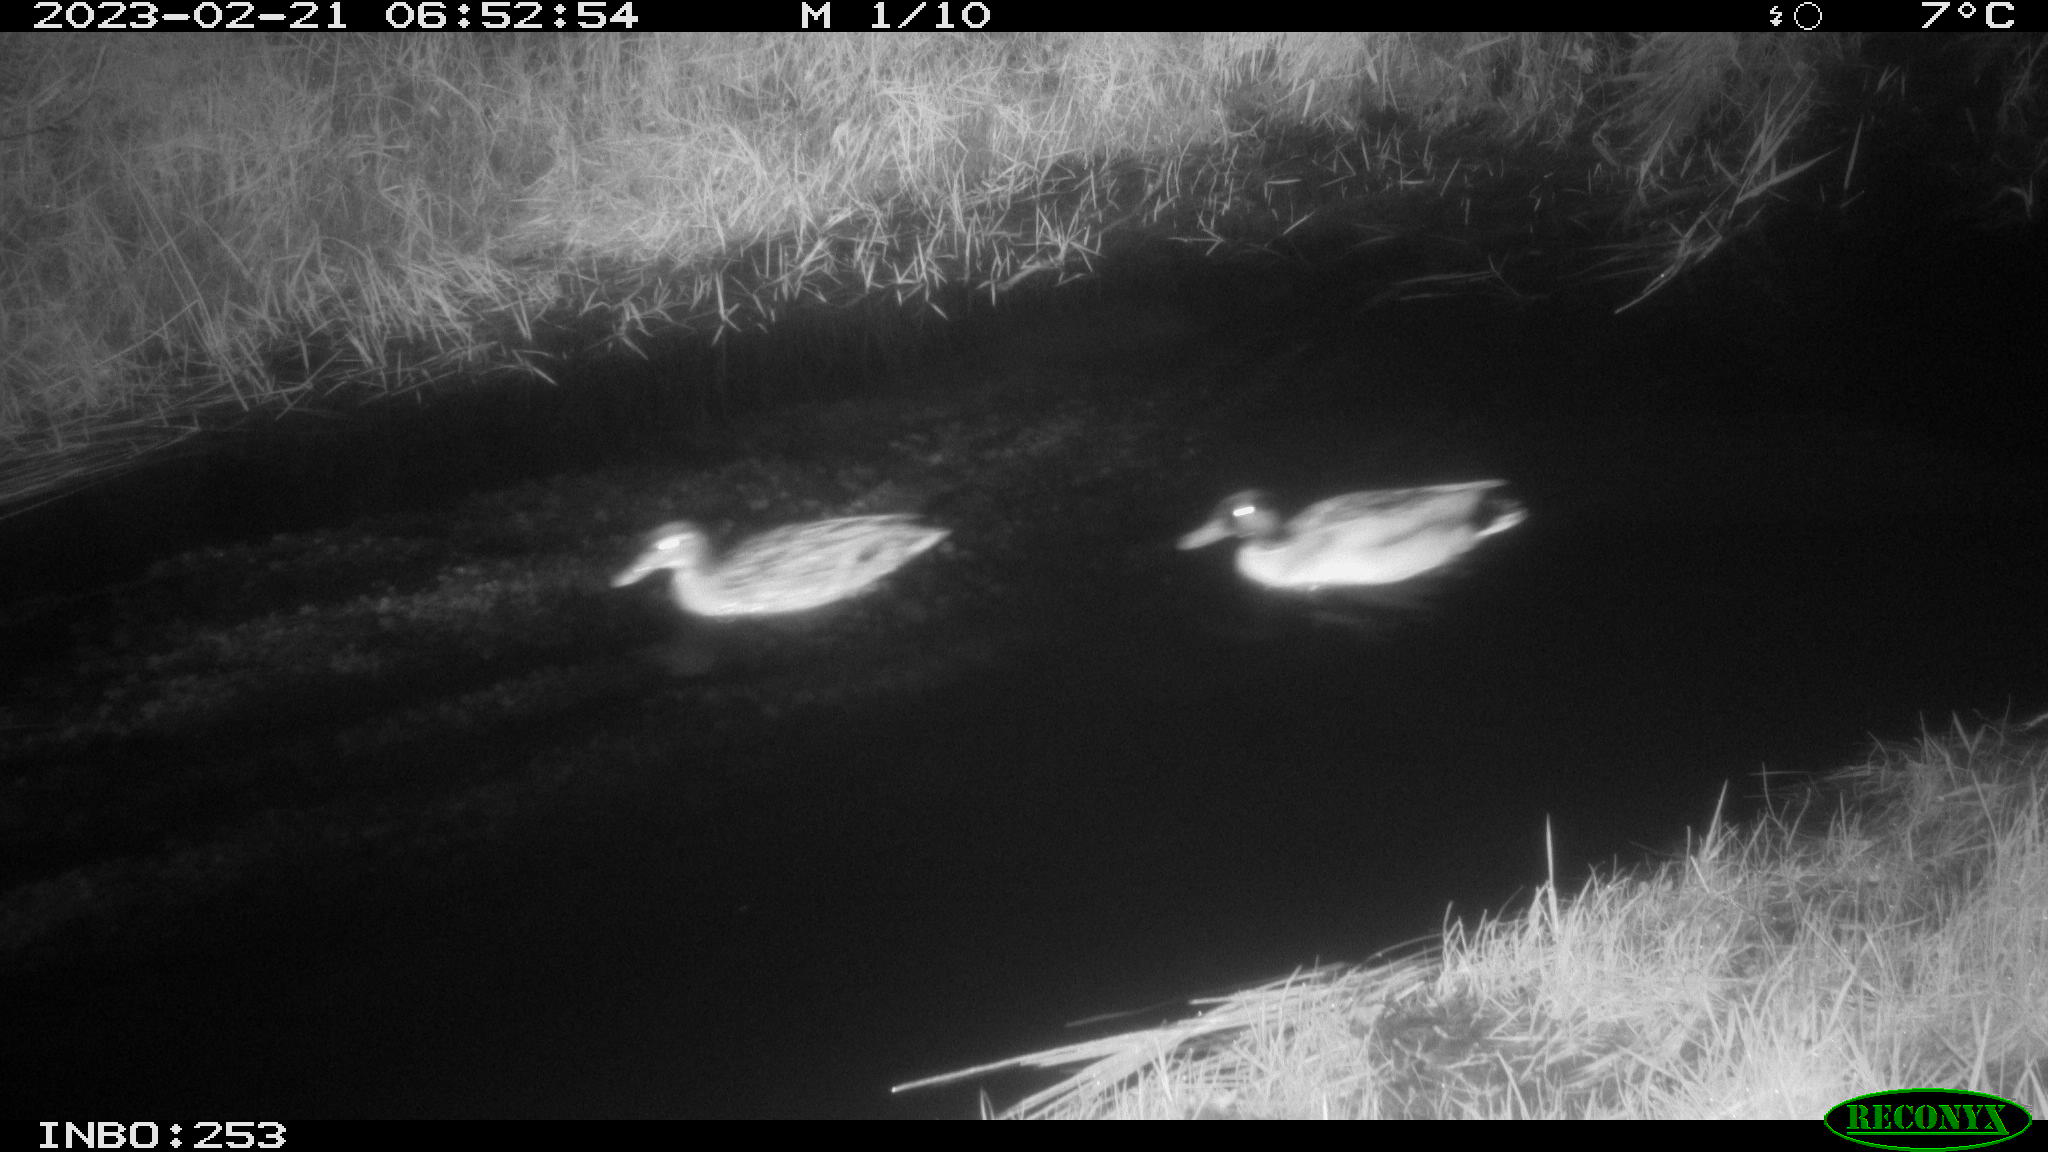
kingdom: Animalia
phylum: Chordata
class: Aves
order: Anseriformes
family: Anatidae
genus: Anas
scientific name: Anas
